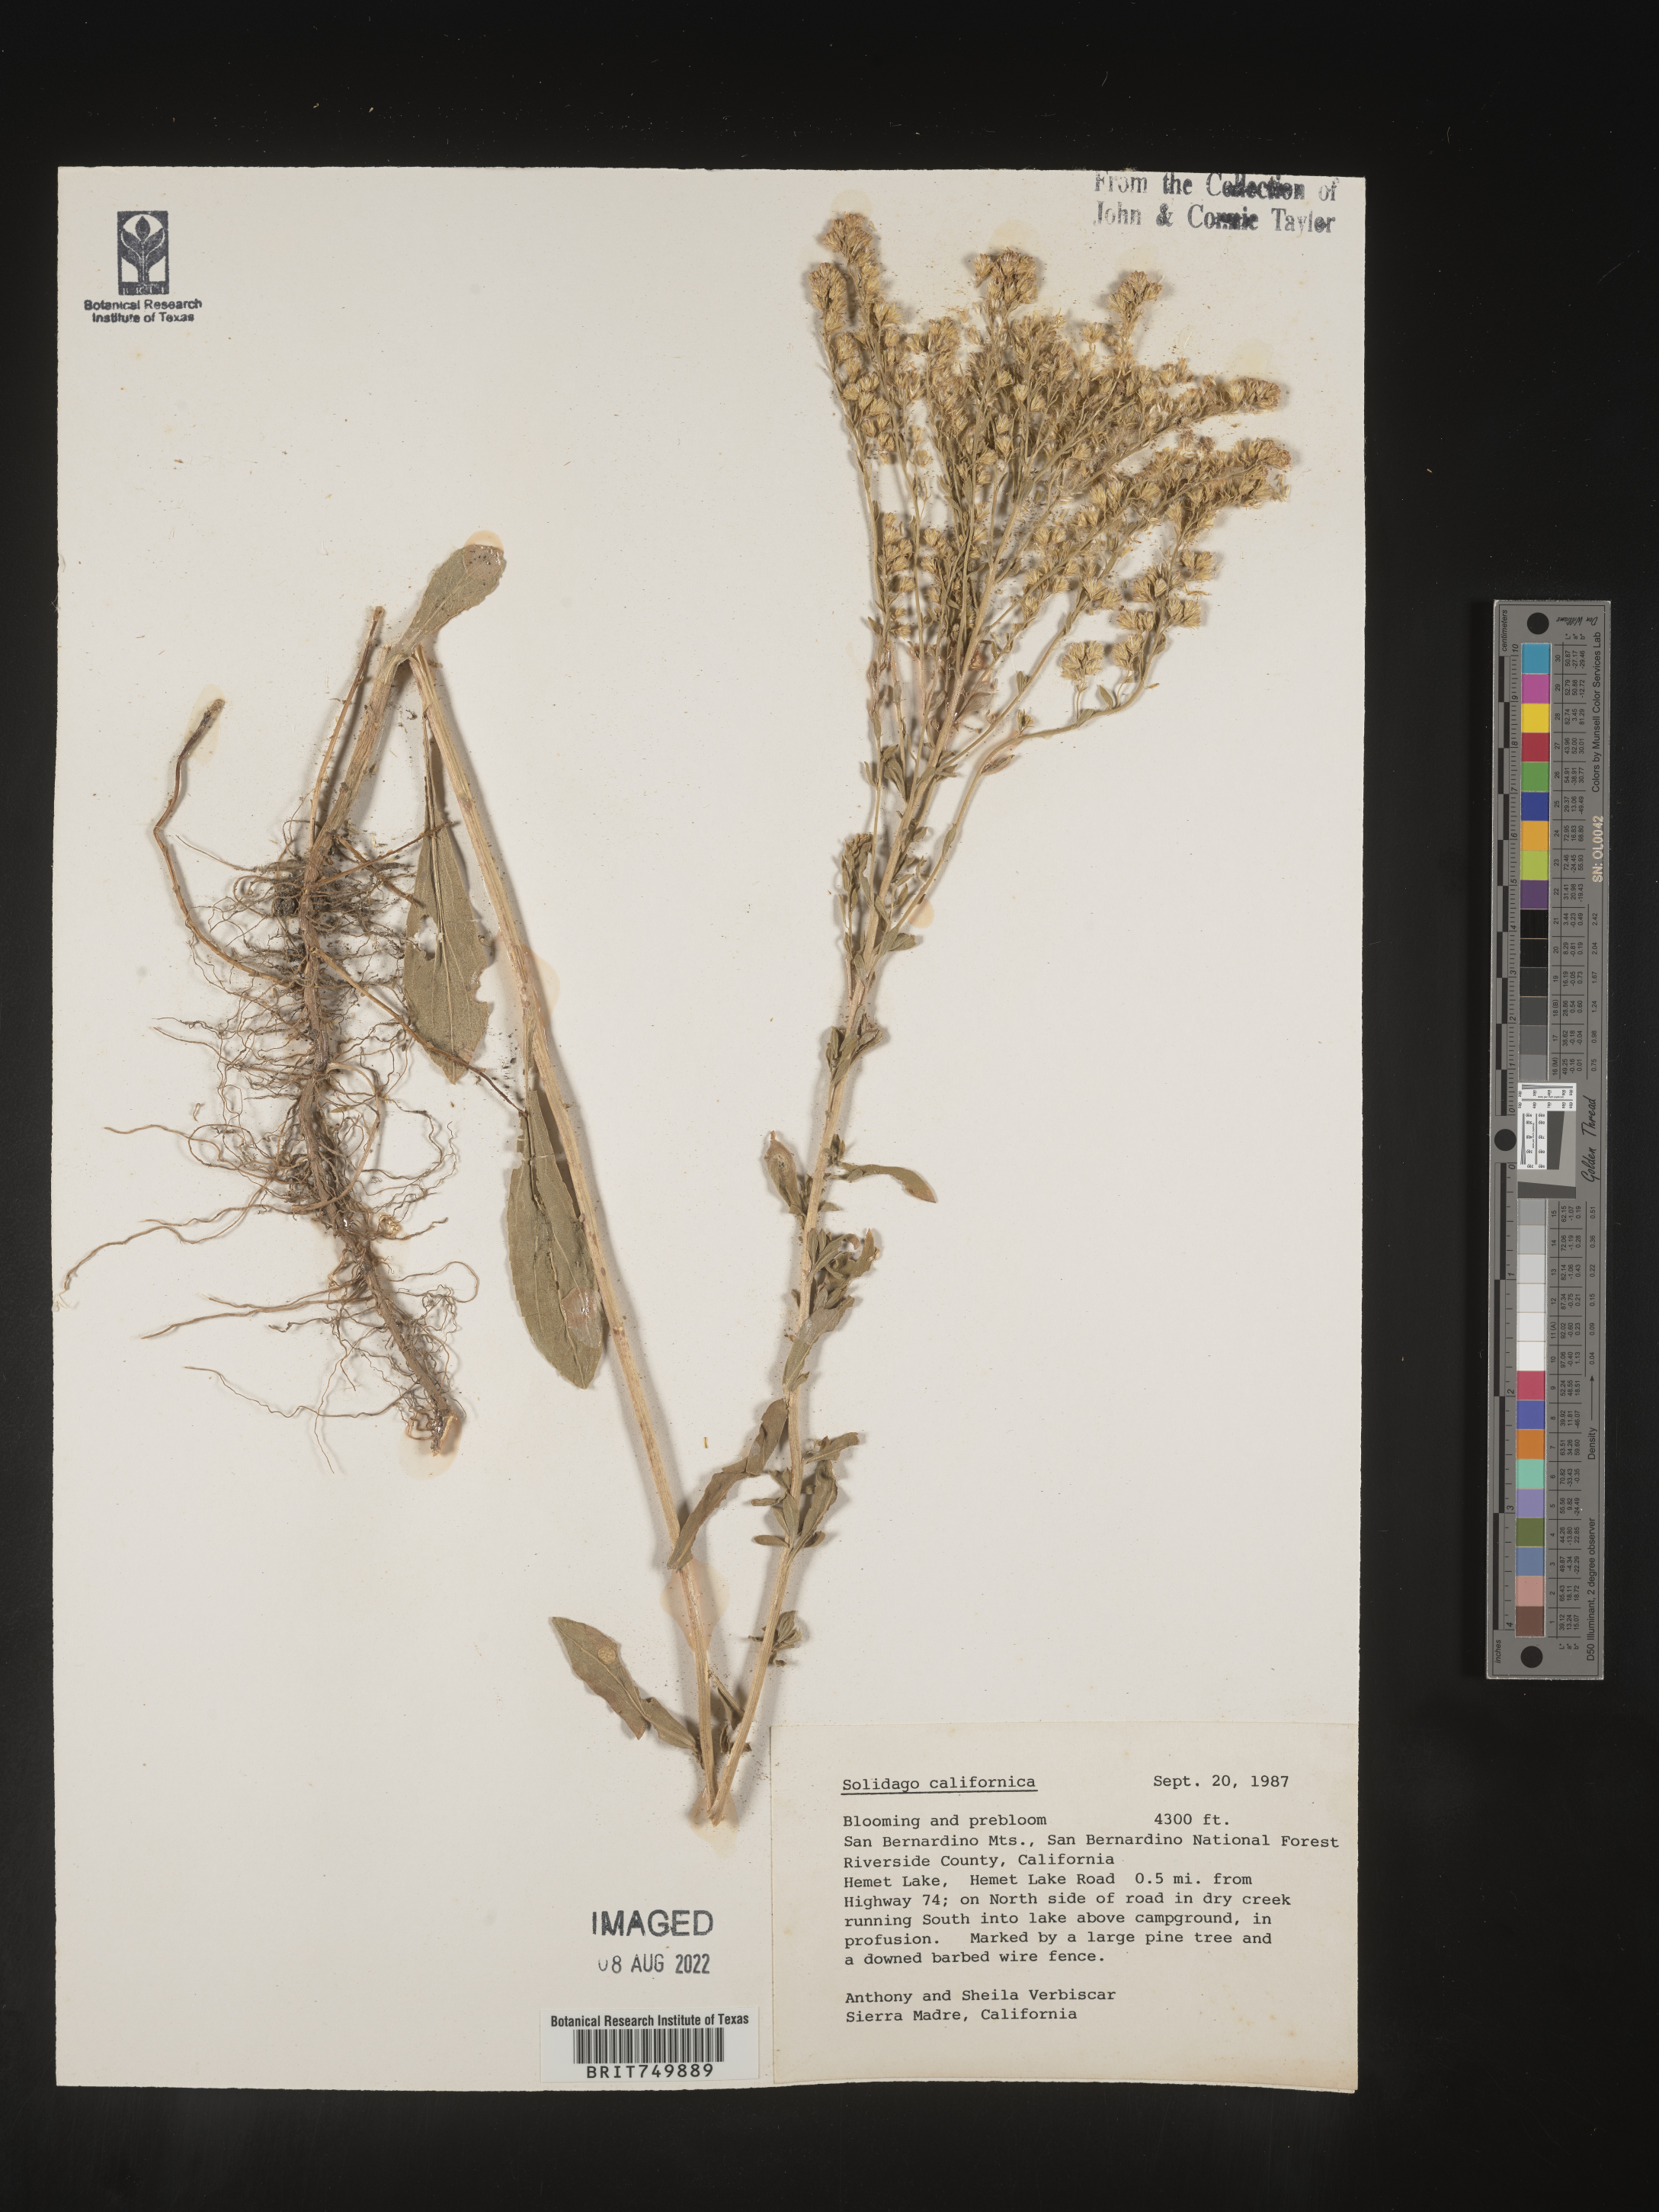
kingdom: Plantae
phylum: Tracheophyta
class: Magnoliopsida
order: Asterales
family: Asteraceae
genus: Solidago
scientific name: Solidago californica
